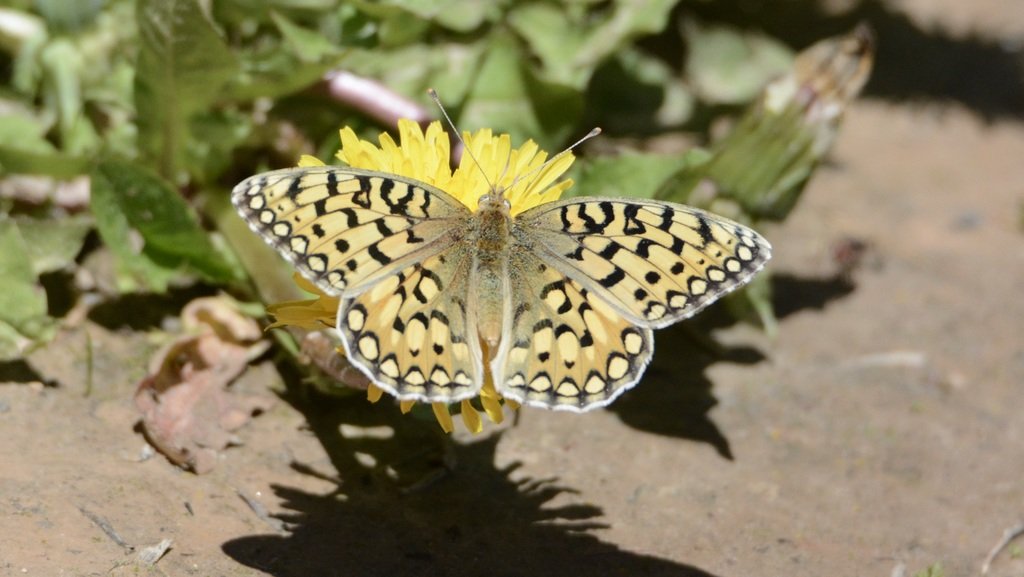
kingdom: Animalia
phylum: Arthropoda
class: Insecta
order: Lepidoptera
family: Nymphalidae
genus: Speyeria
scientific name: Speyeria callippe
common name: Callippe Fritillary
